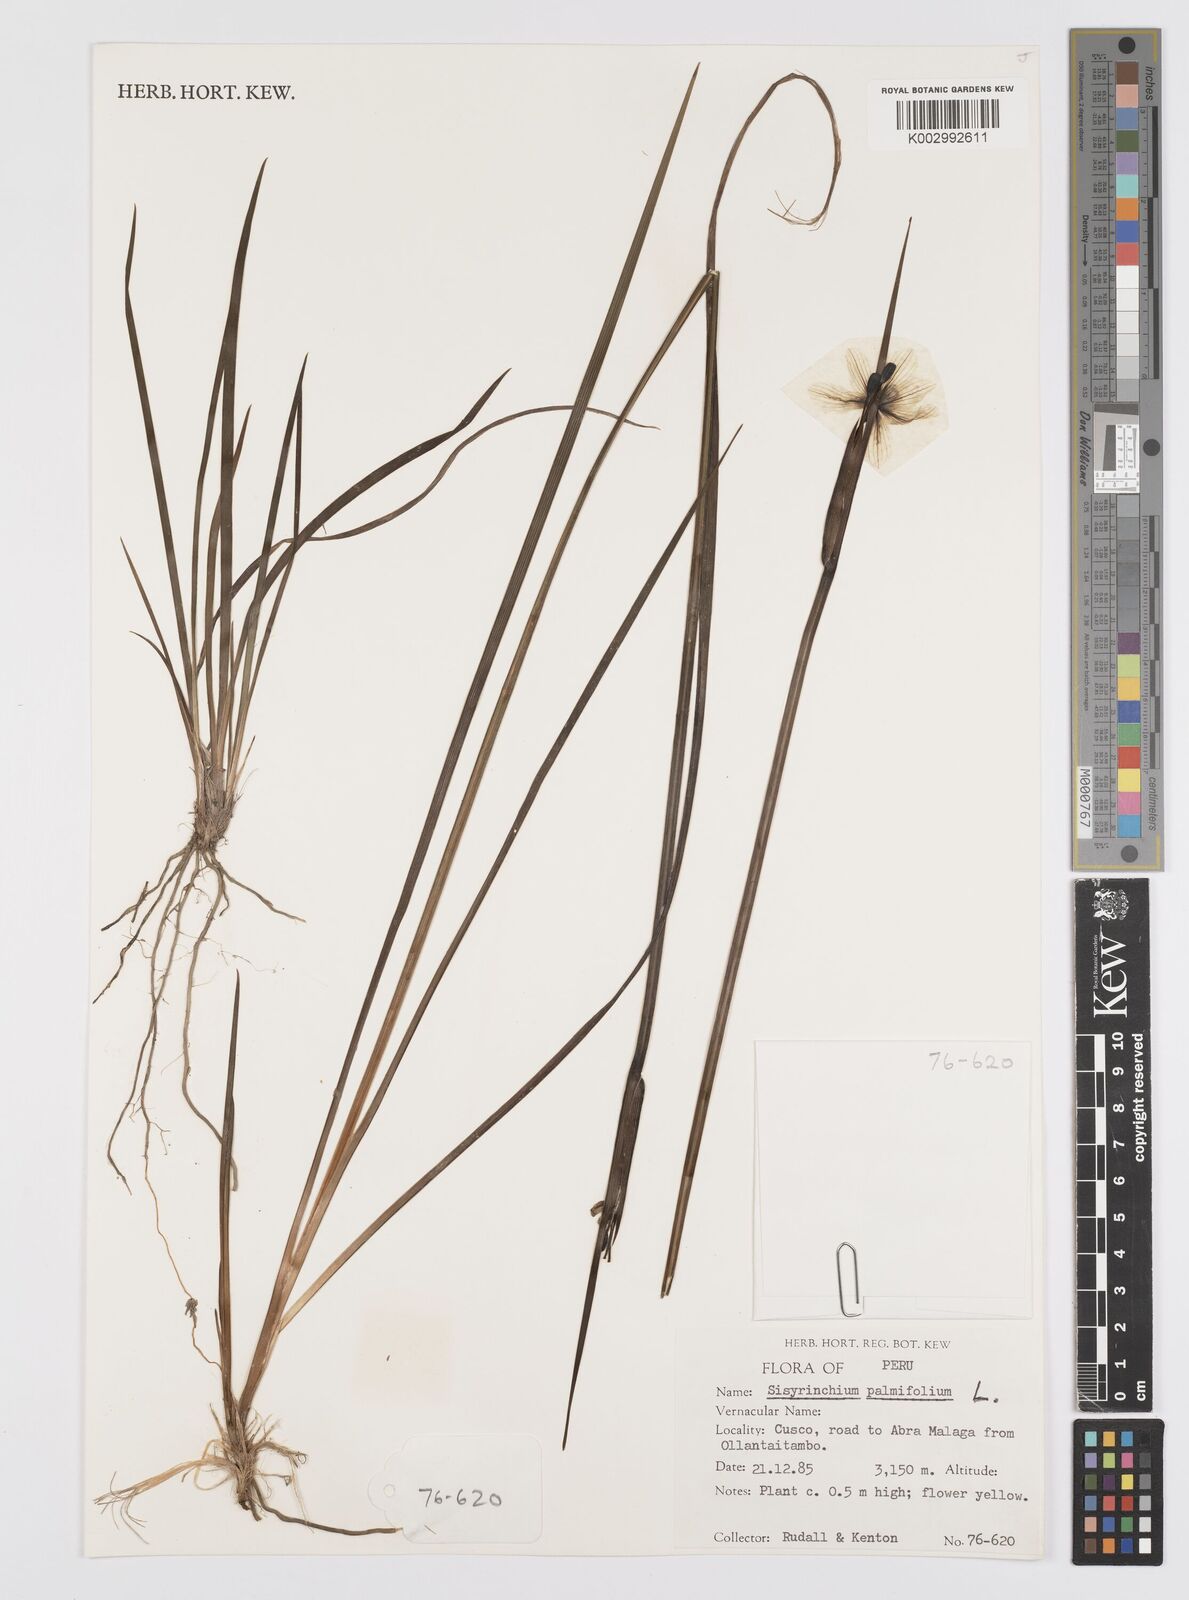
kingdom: Plantae
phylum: Tracheophyta
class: Liliopsida
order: Asparagales
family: Iridaceae
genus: Sisyrinchium
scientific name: Sisyrinchium palmifolium
